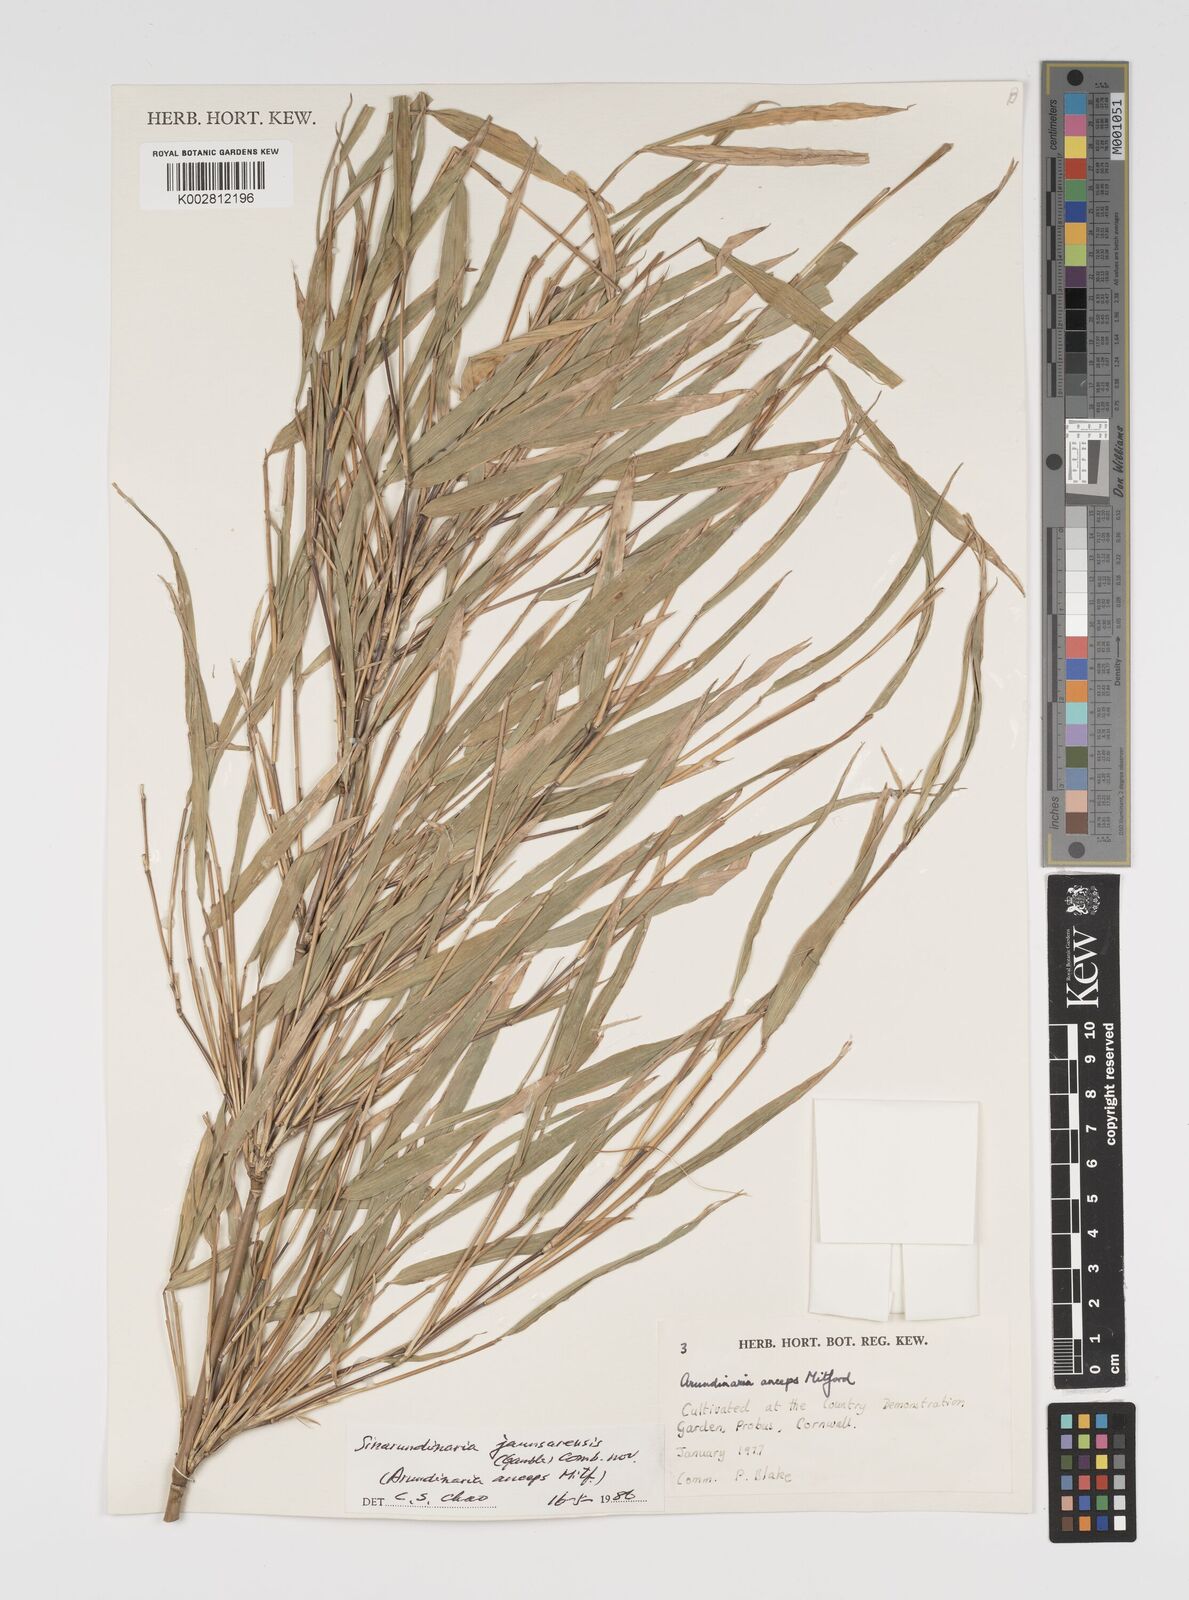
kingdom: Plantae
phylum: Tracheophyta
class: Liliopsida
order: Poales
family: Poaceae
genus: Yushania
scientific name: Yushania anceps
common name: Indian fountain-bamboo
